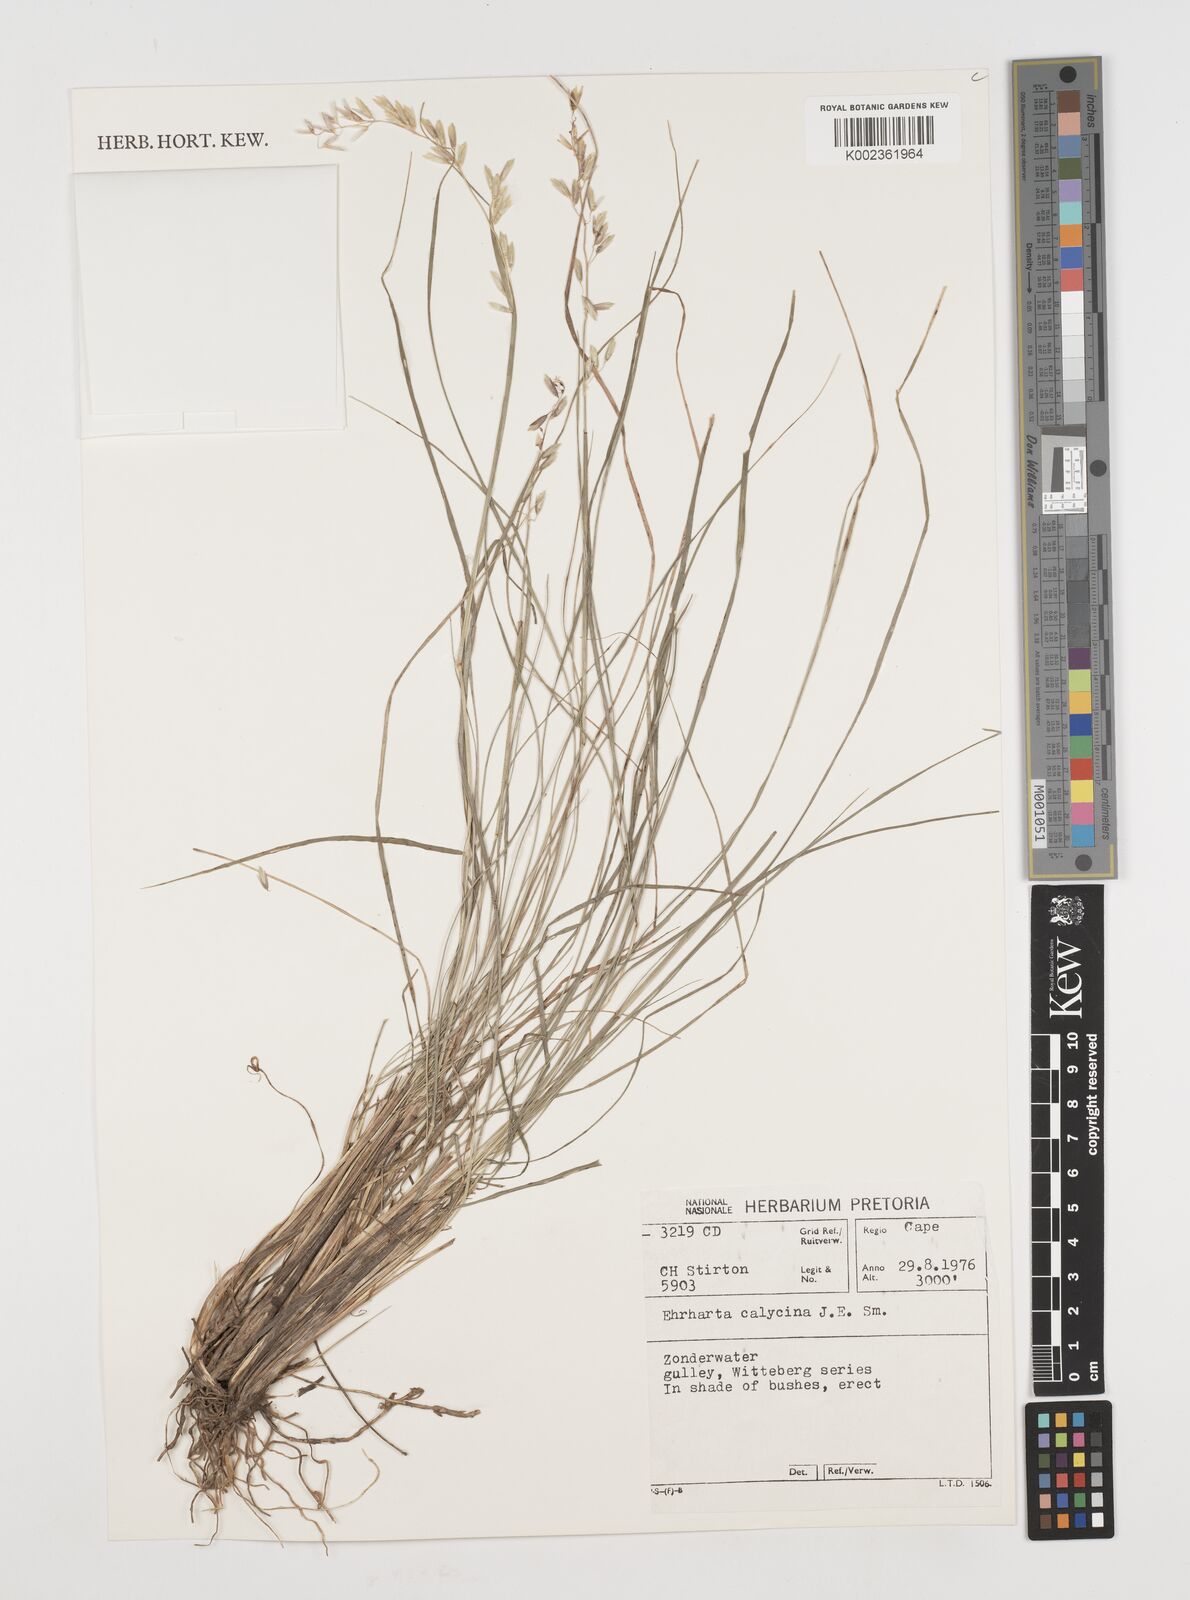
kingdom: Plantae
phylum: Tracheophyta
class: Liliopsida
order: Poales
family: Poaceae
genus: Ehrharta
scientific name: Ehrharta calycina
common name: Perennial veldtgrass
